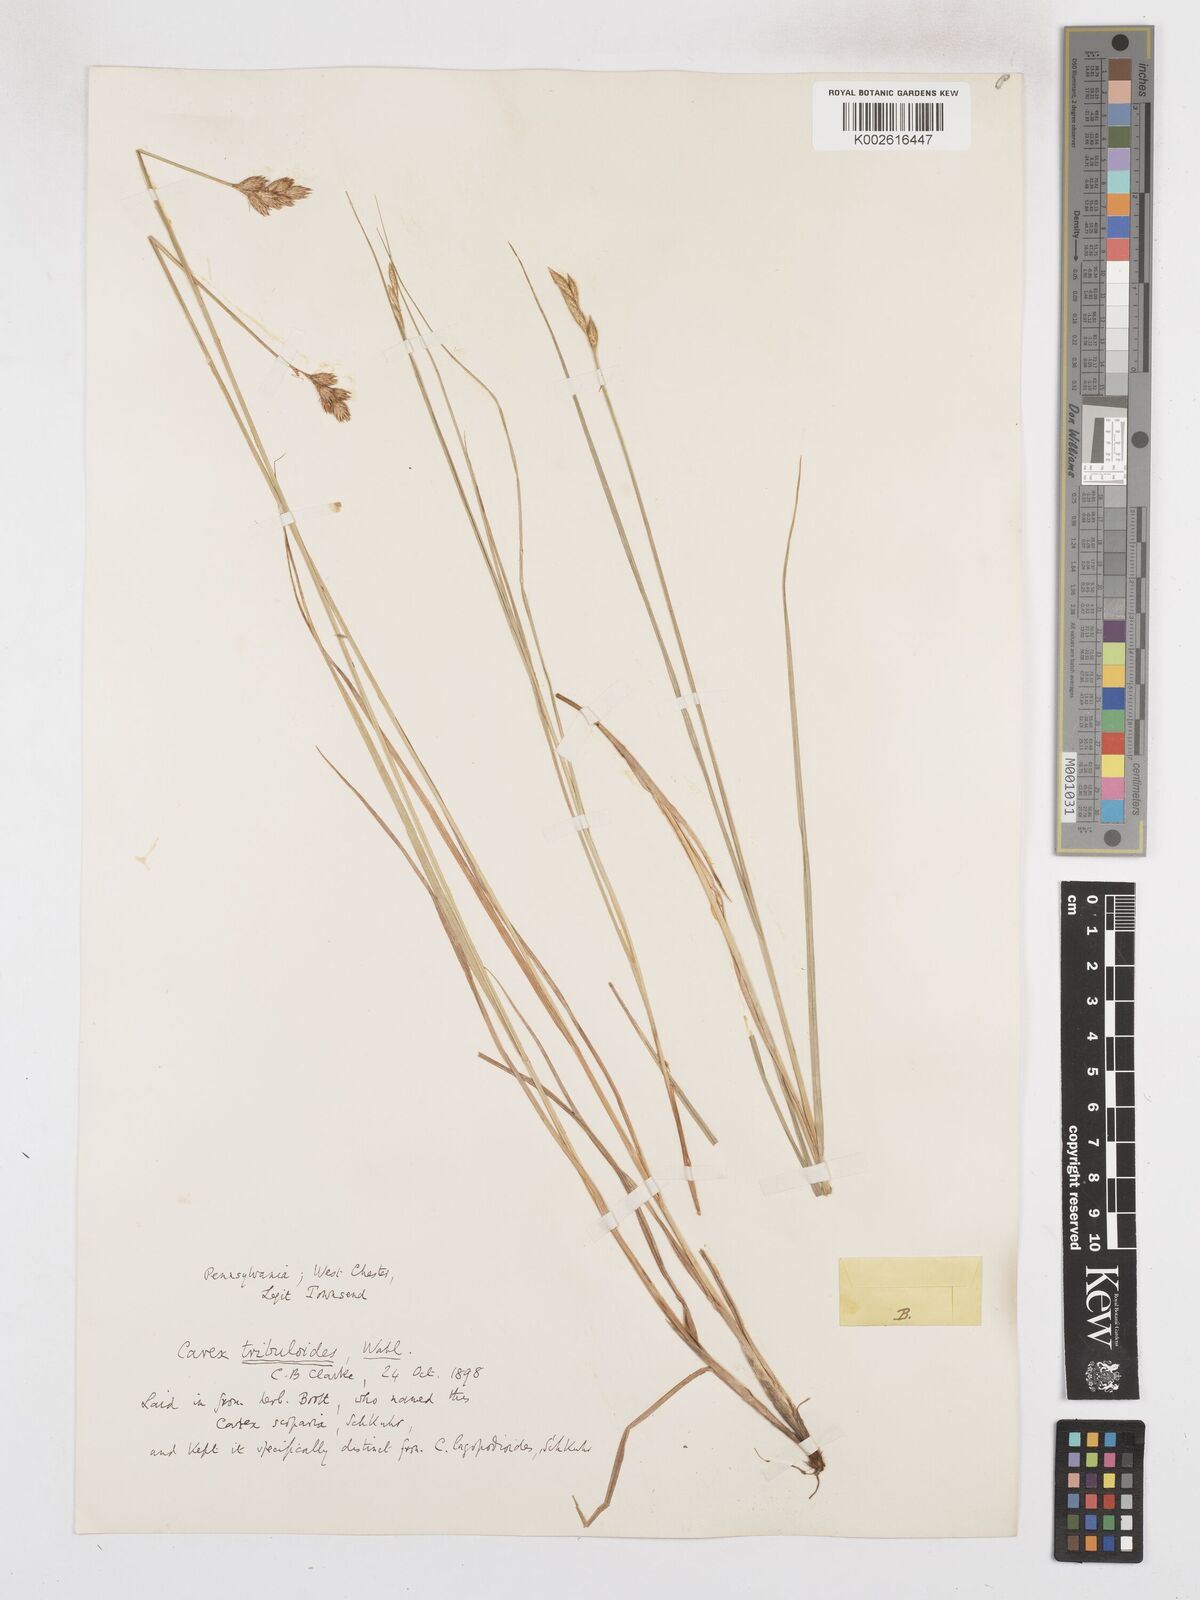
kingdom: Plantae
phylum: Tracheophyta
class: Liliopsida
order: Poales
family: Cyperaceae
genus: Carex
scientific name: Carex tribuloides
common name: Blunt broom sedge
